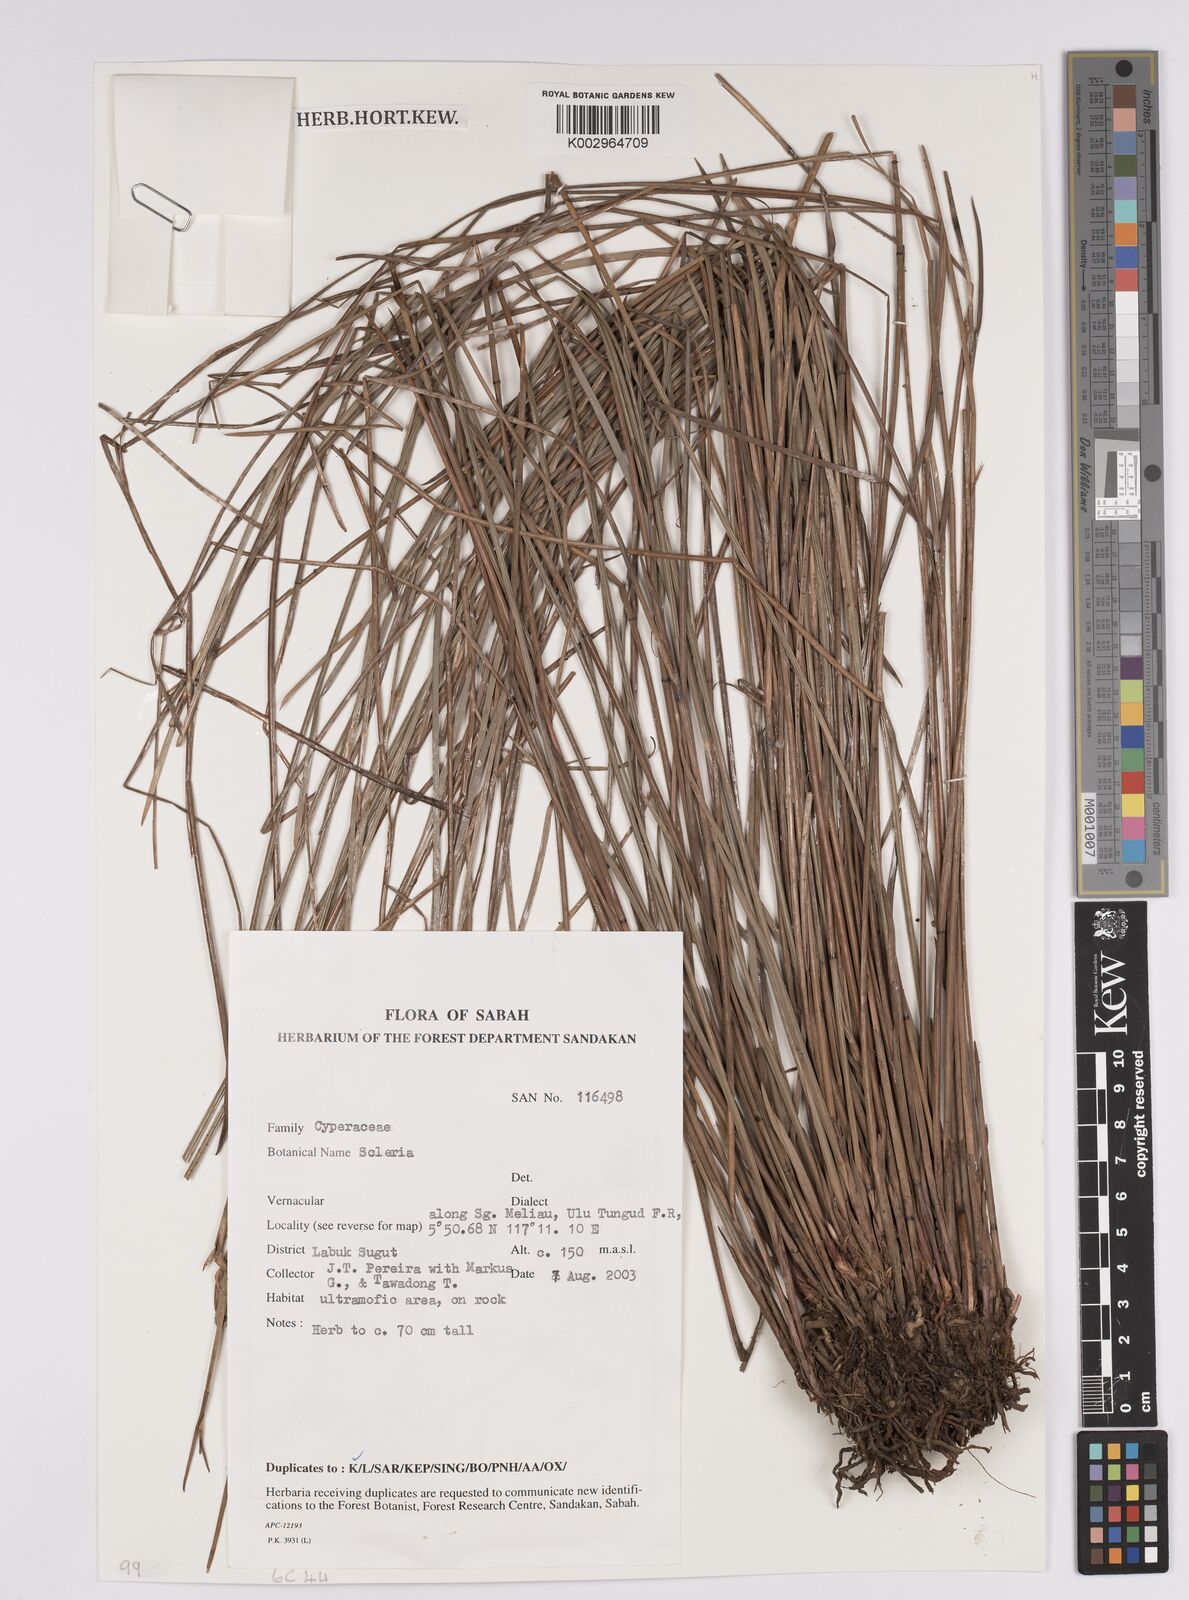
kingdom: Plantae
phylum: Tracheophyta
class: Liliopsida
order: Poales
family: Cyperaceae
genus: Scleria
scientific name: Scleria
